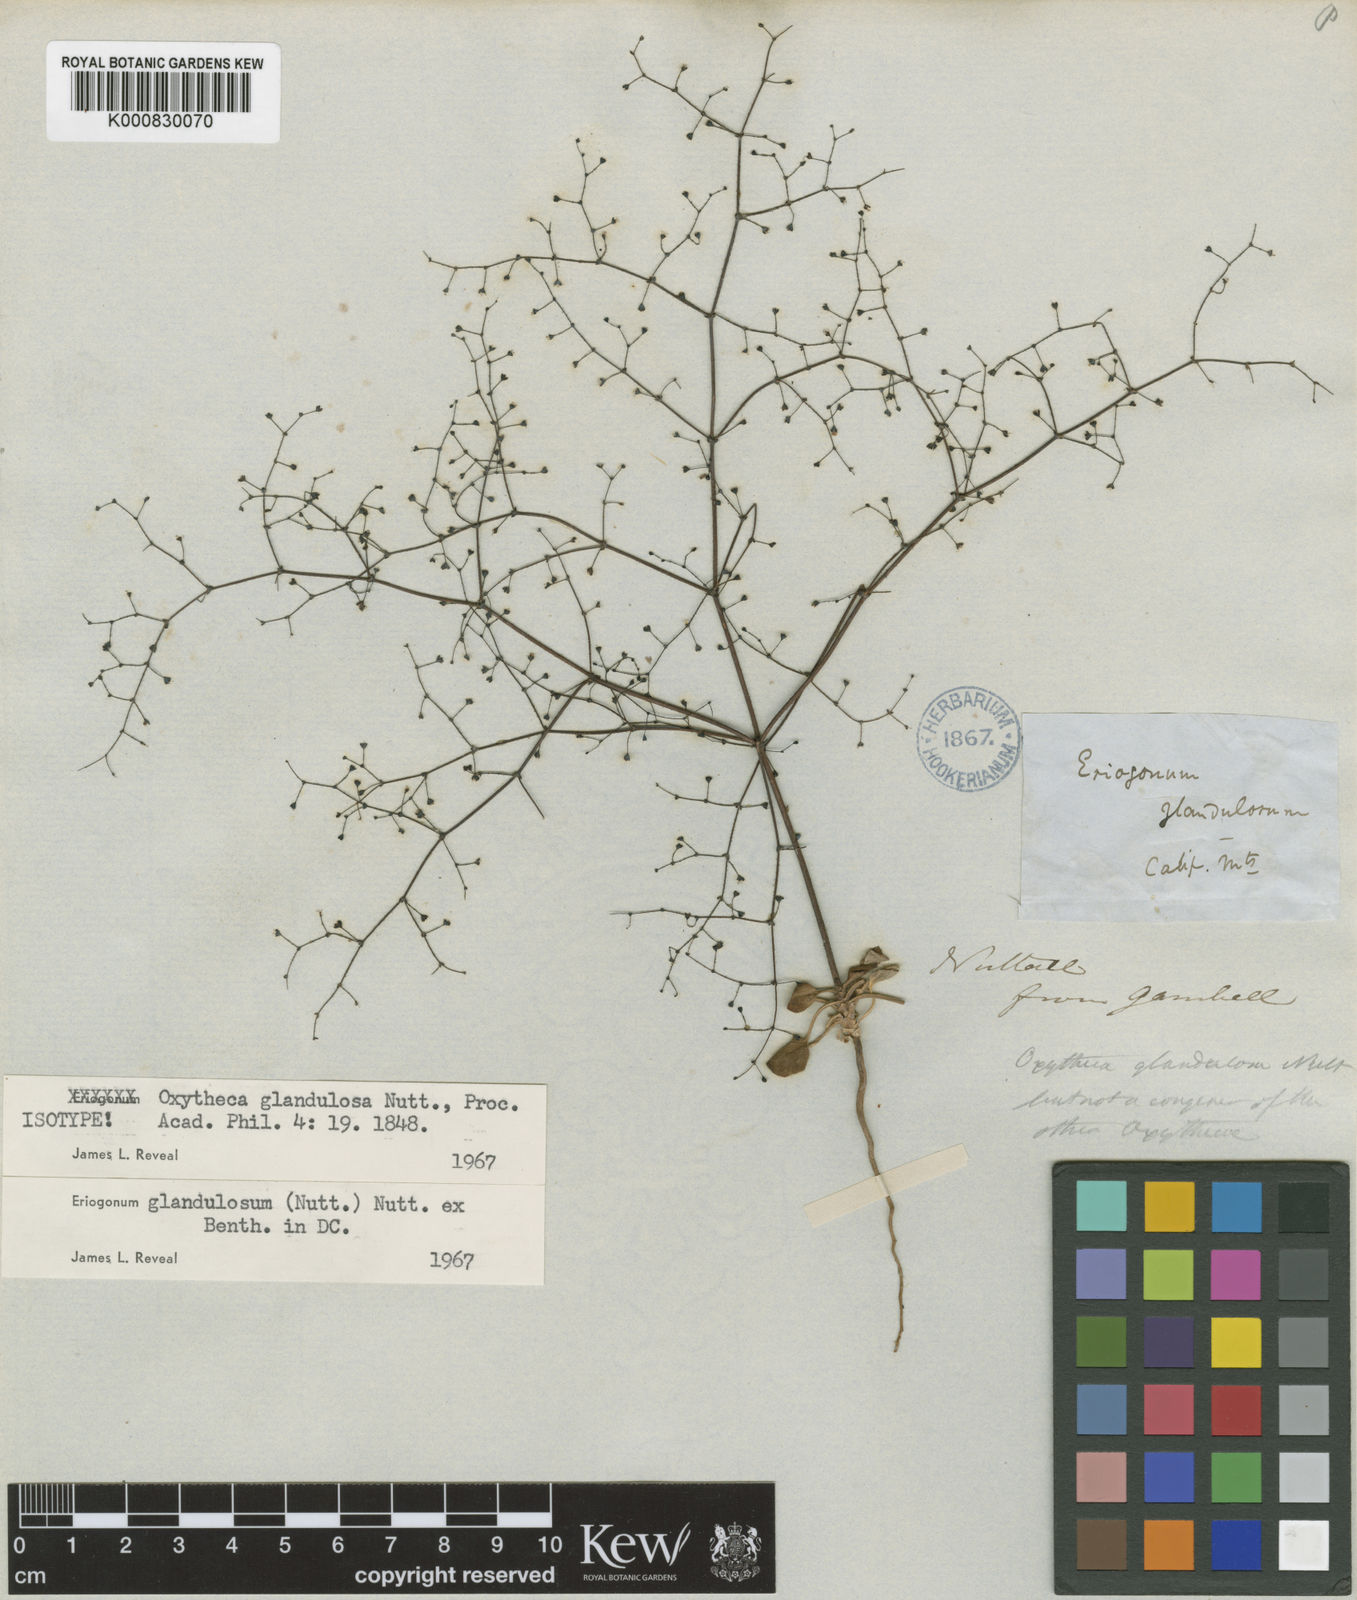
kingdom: Plantae
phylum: Tracheophyta
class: Magnoliopsida
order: Caryophyllales
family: Polygonaceae
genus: Eriogonum
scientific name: Eriogonum glandulosum
